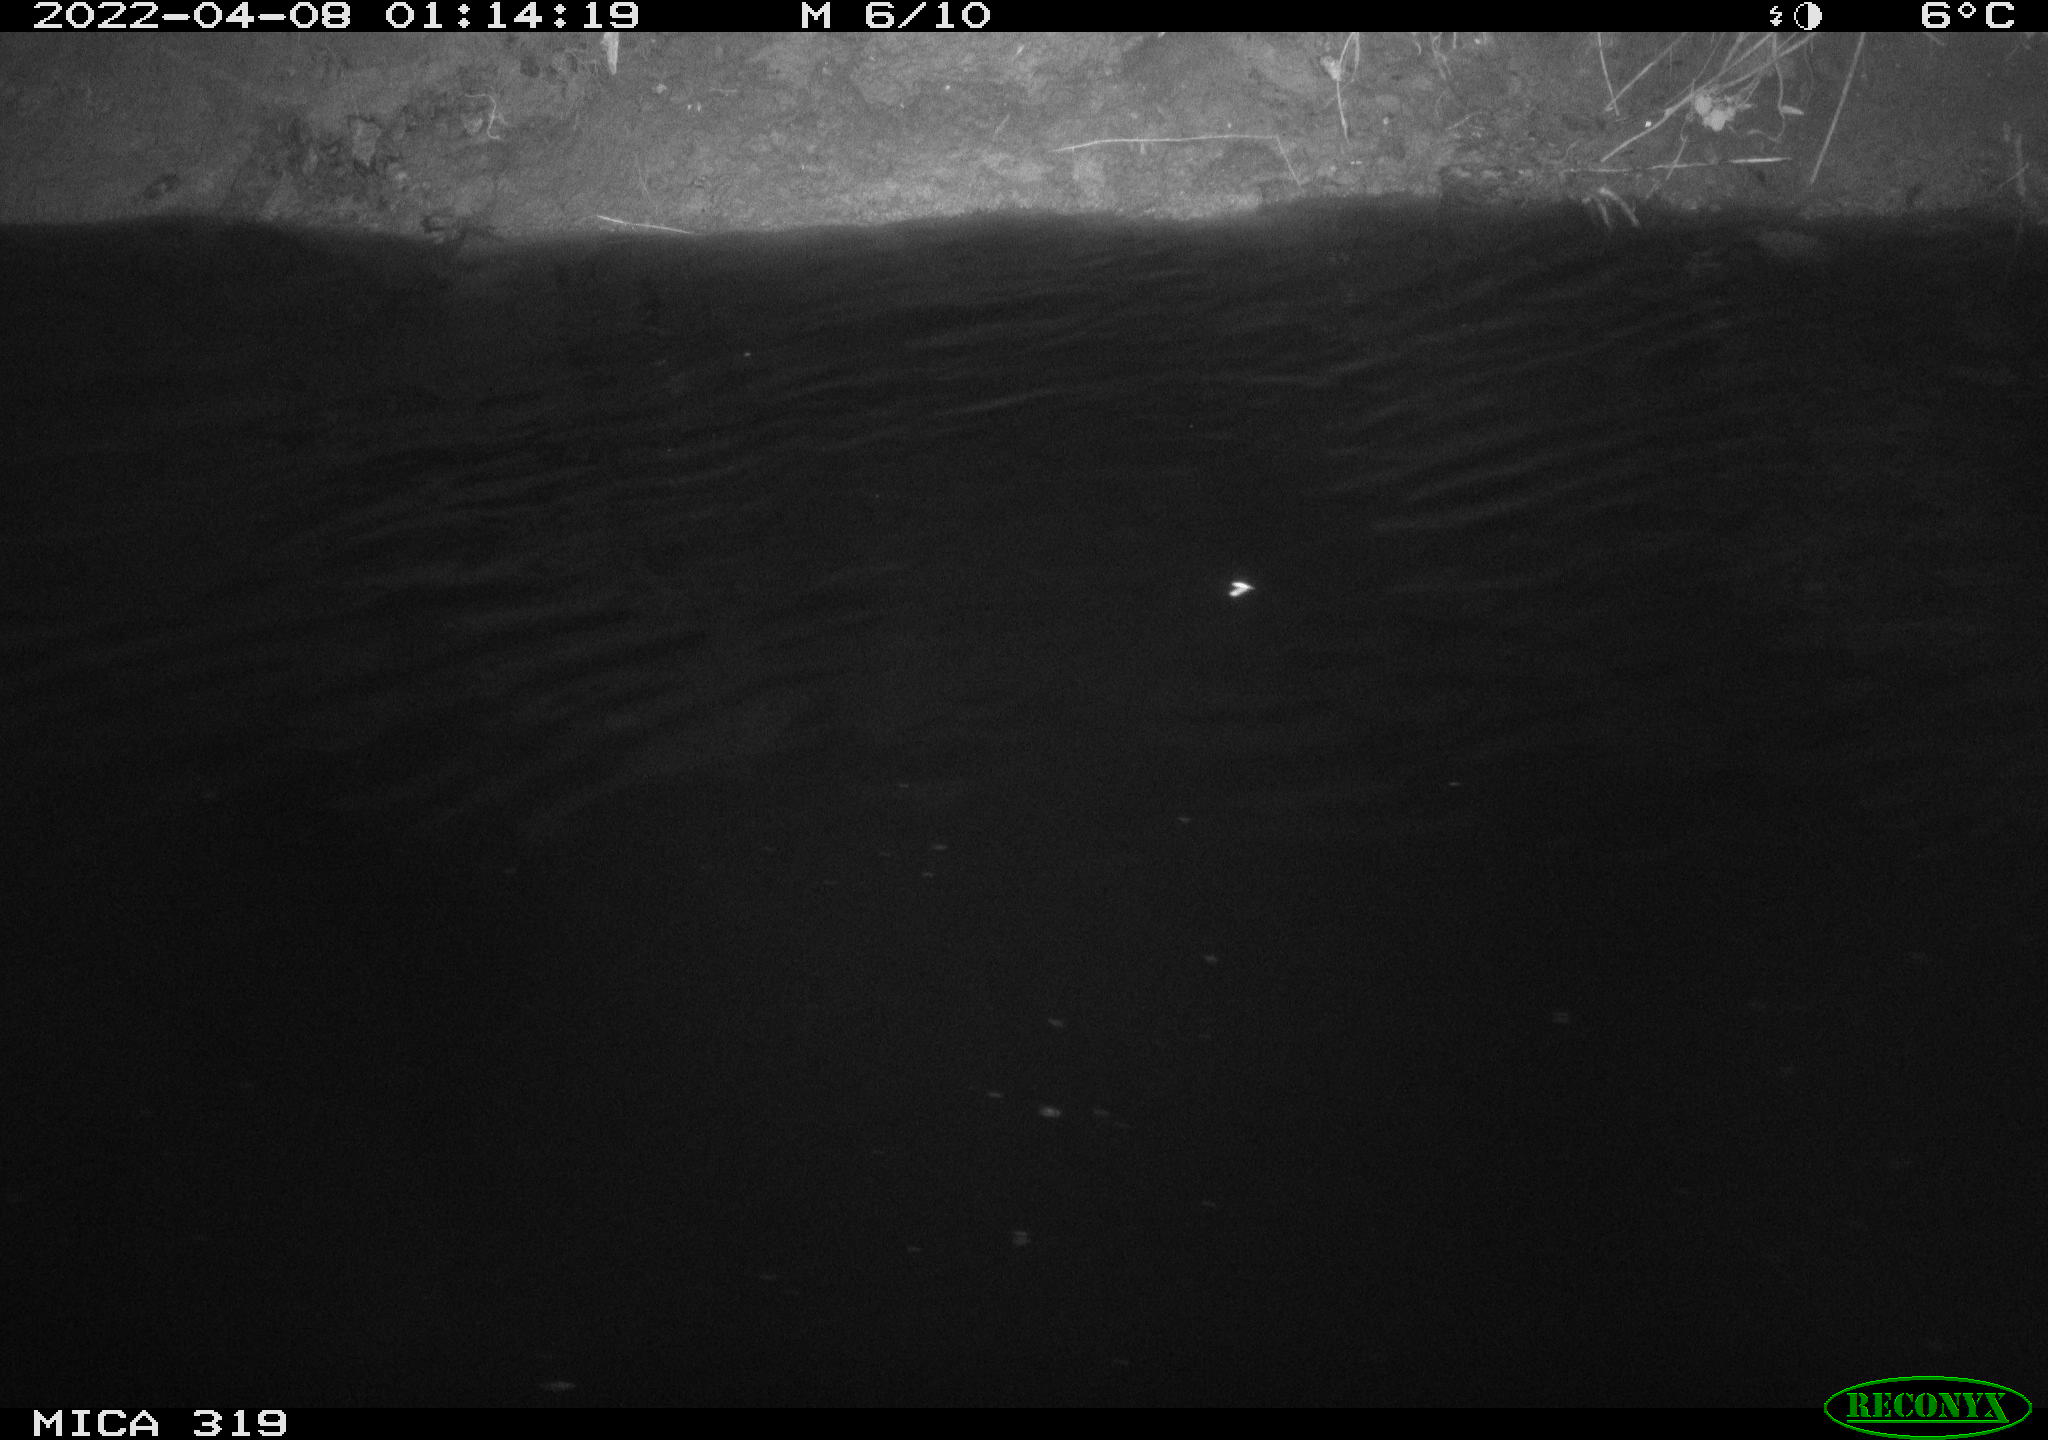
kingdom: Animalia
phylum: Chordata
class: Aves
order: Anseriformes
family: Anatidae
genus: Anas
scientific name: Anas platyrhynchos
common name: Mallard
